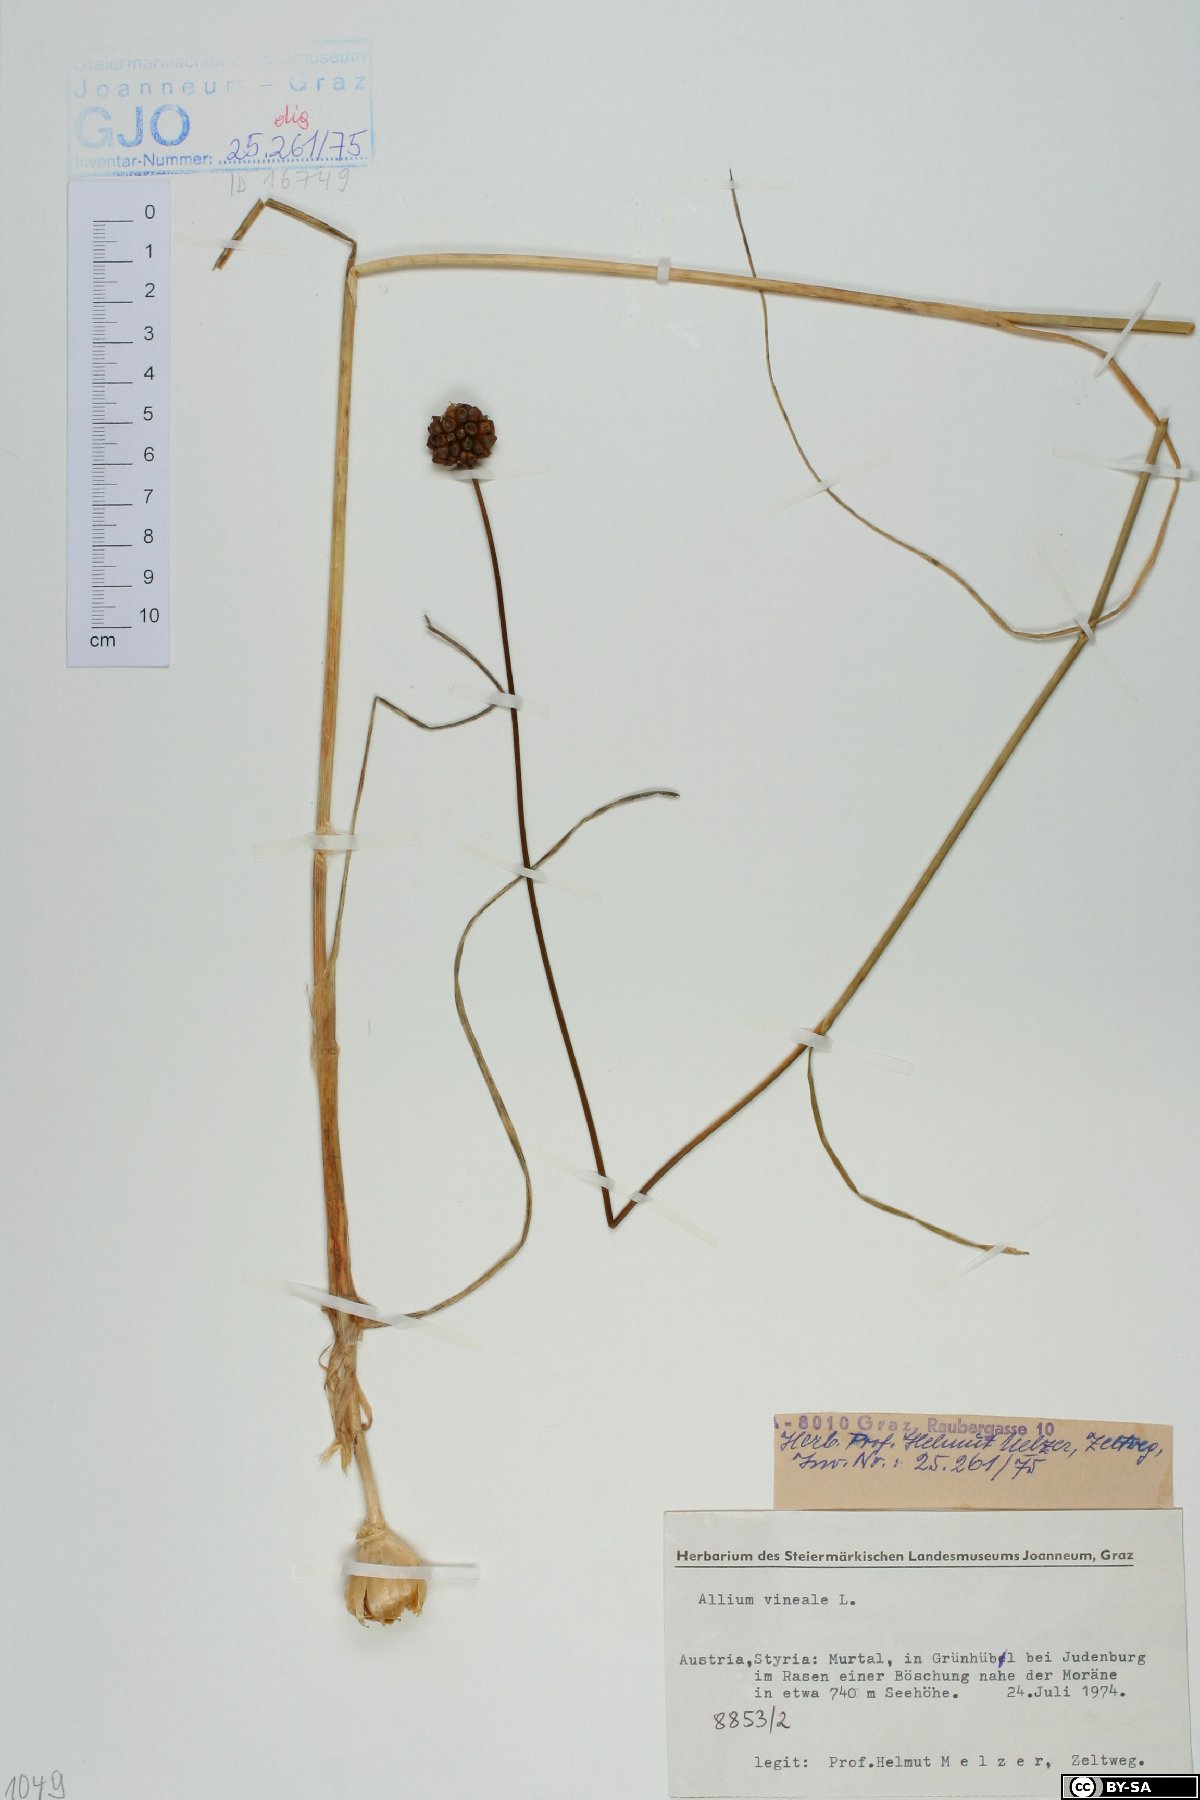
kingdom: Plantae
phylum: Tracheophyta
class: Liliopsida
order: Asparagales
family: Amaryllidaceae
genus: Allium
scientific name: Allium vineale
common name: Crow garlic
